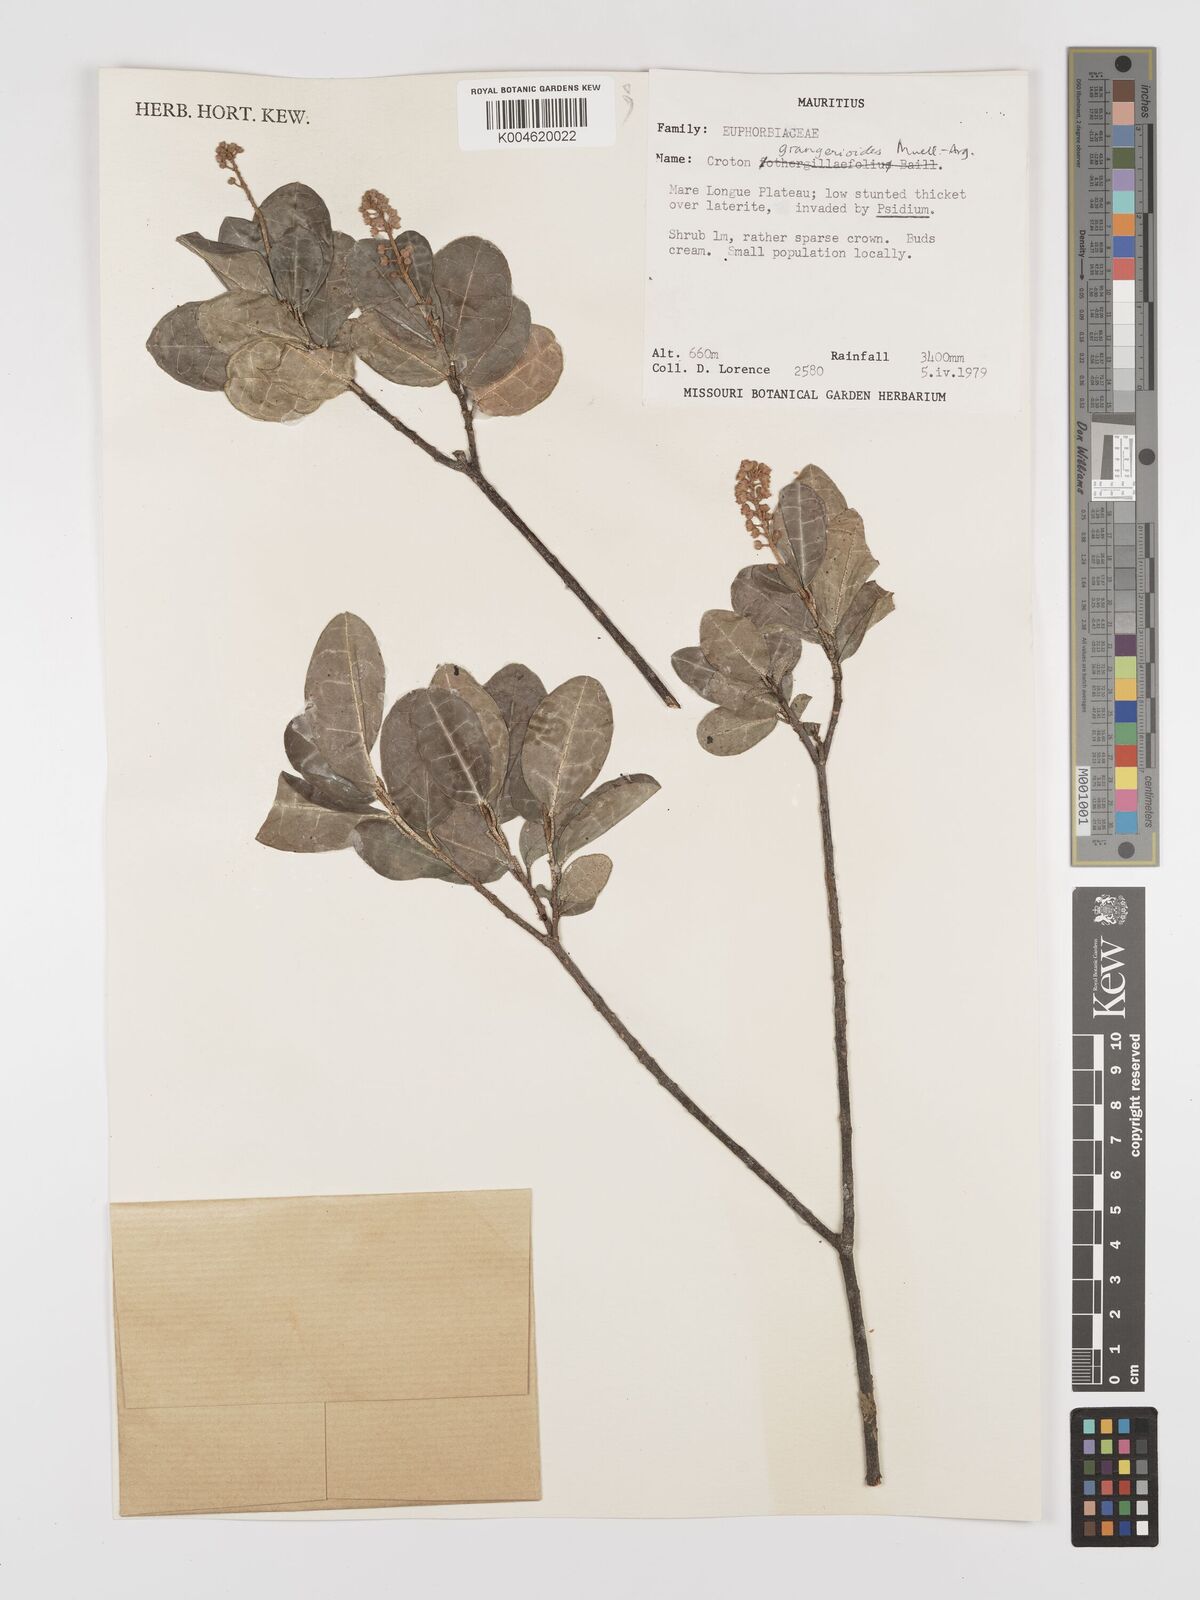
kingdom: Plantae
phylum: Tracheophyta
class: Magnoliopsida
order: Malpighiales
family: Euphorbiaceae
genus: Croton
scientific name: Croton grangerioides
